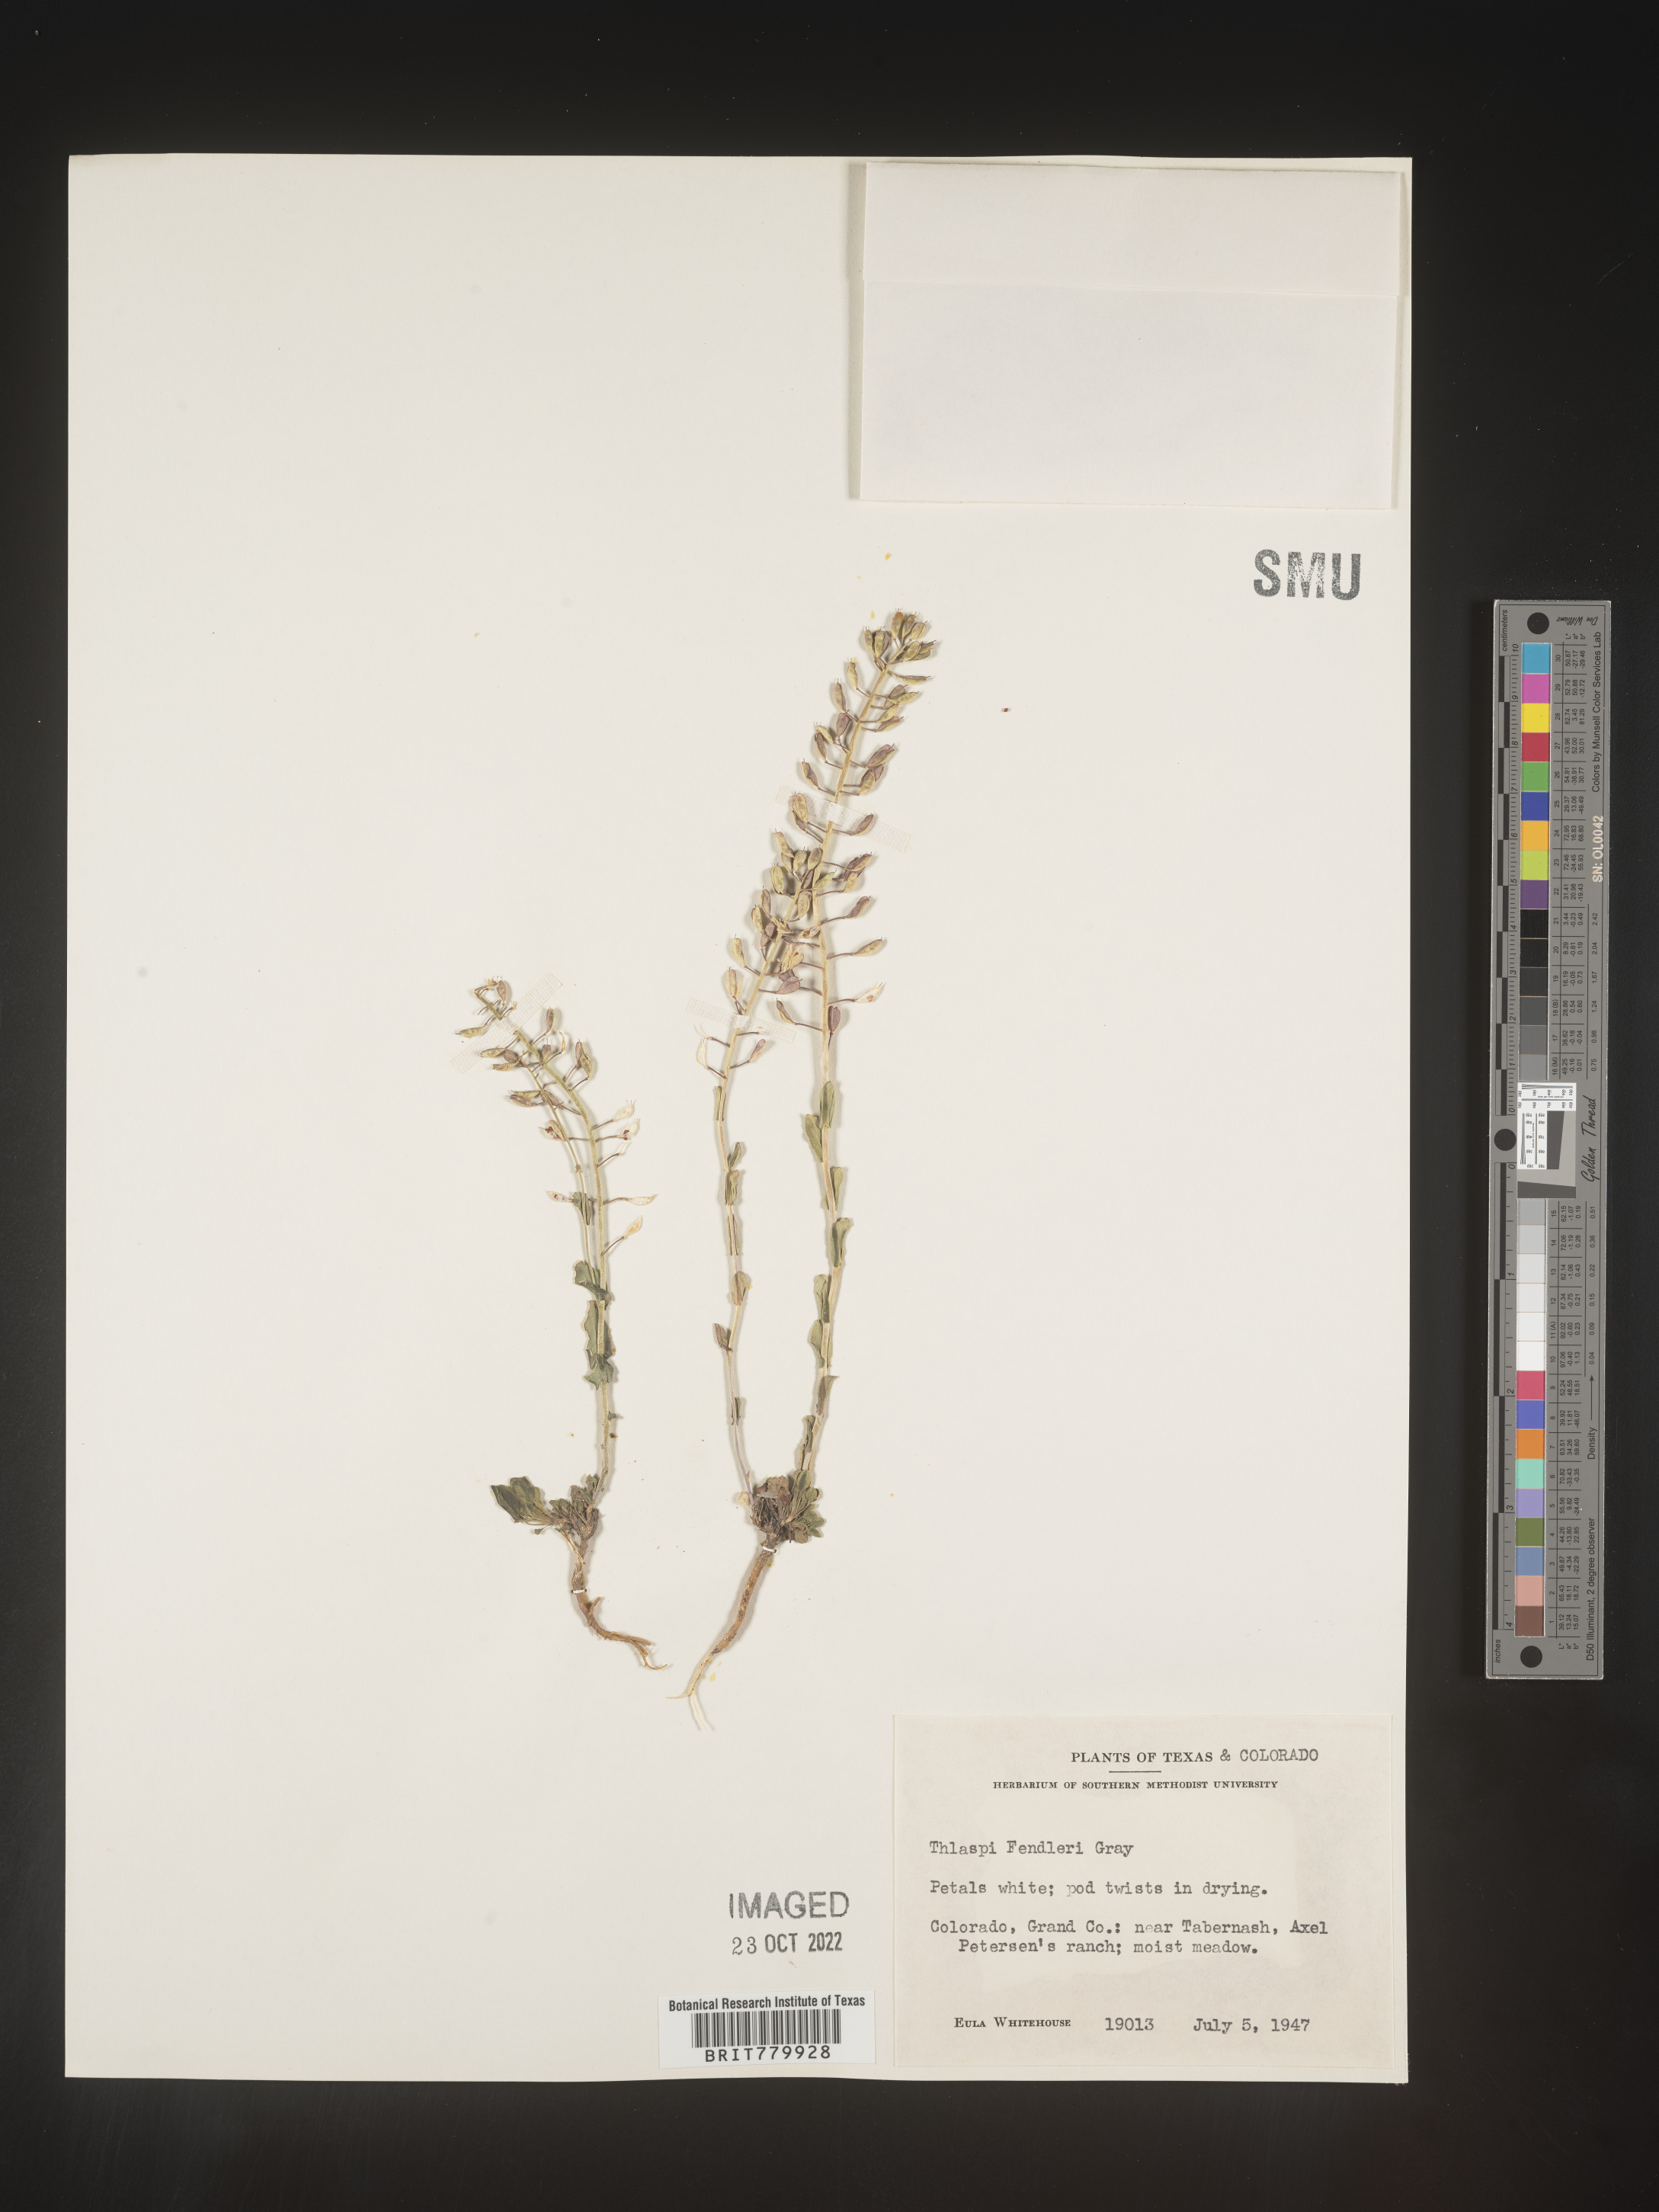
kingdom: Plantae
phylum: Tracheophyta
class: Magnoliopsida
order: Brassicales
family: Brassicaceae
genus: Thlaspi
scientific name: Thlaspi
